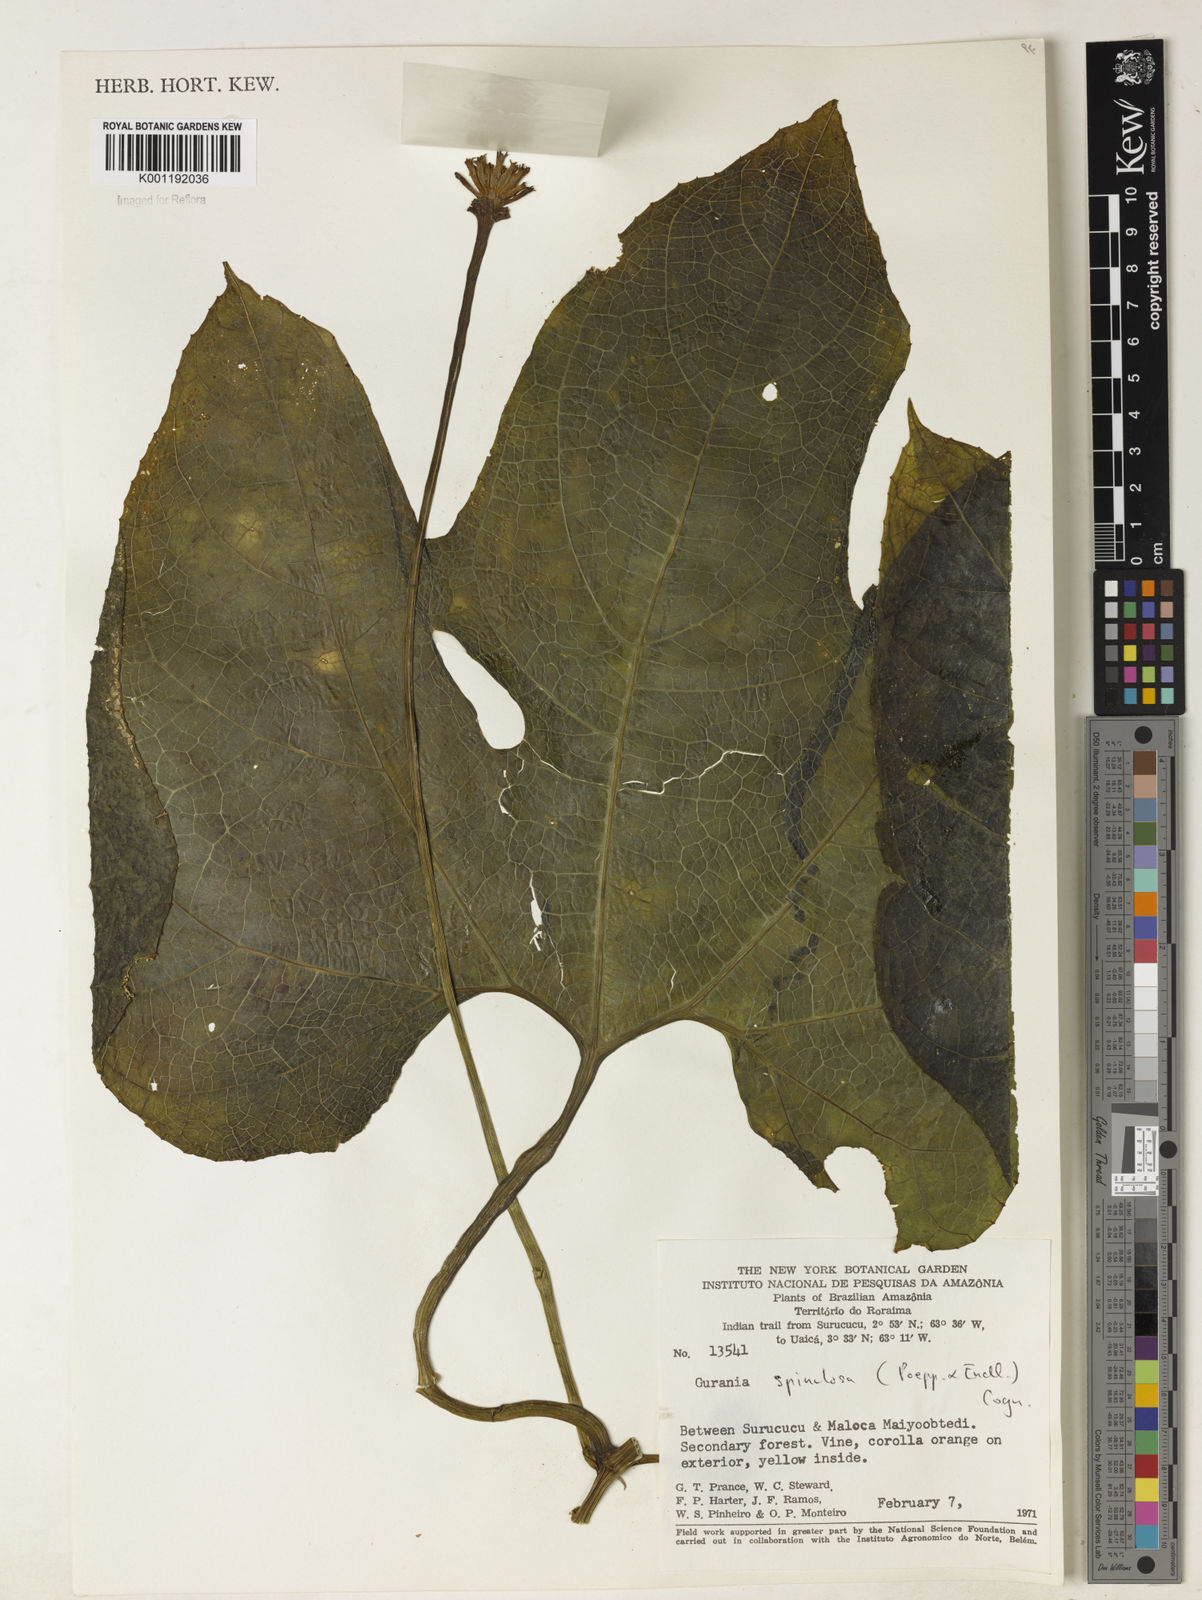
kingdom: Plantae
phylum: Tracheophyta
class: Magnoliopsida
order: Cucurbitales
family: Cucurbitaceae
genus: Gurania
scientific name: Gurania lobata
